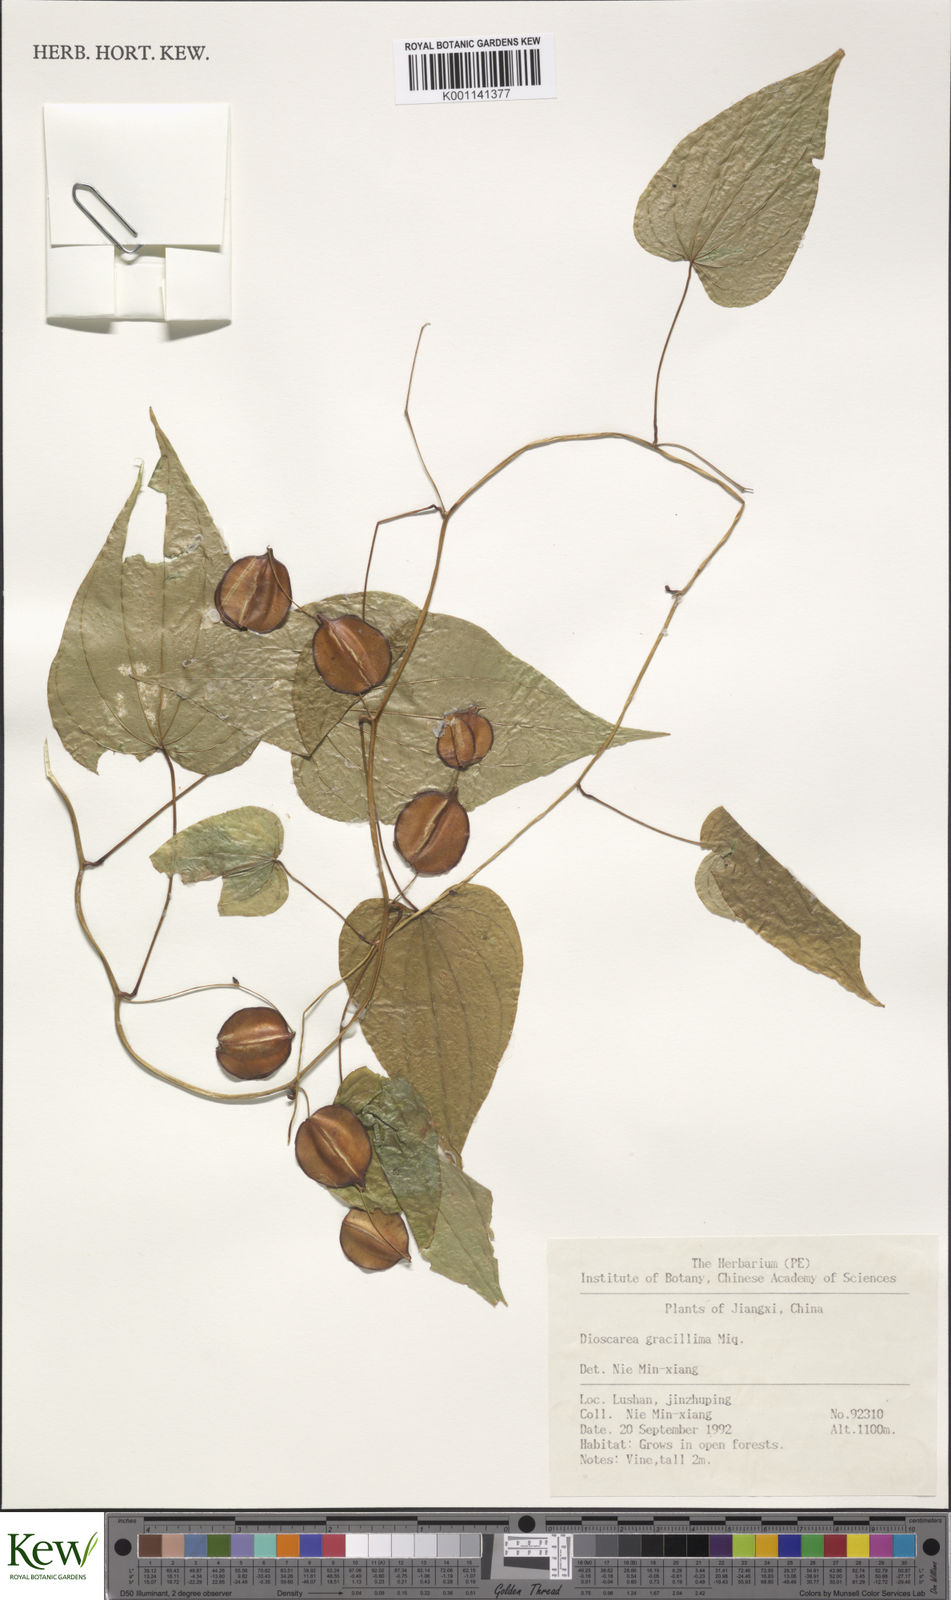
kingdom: Plantae
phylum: Tracheophyta
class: Liliopsida
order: Dioscoreales
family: Dioscoreaceae
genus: Dioscorea
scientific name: Dioscorea gracillima
